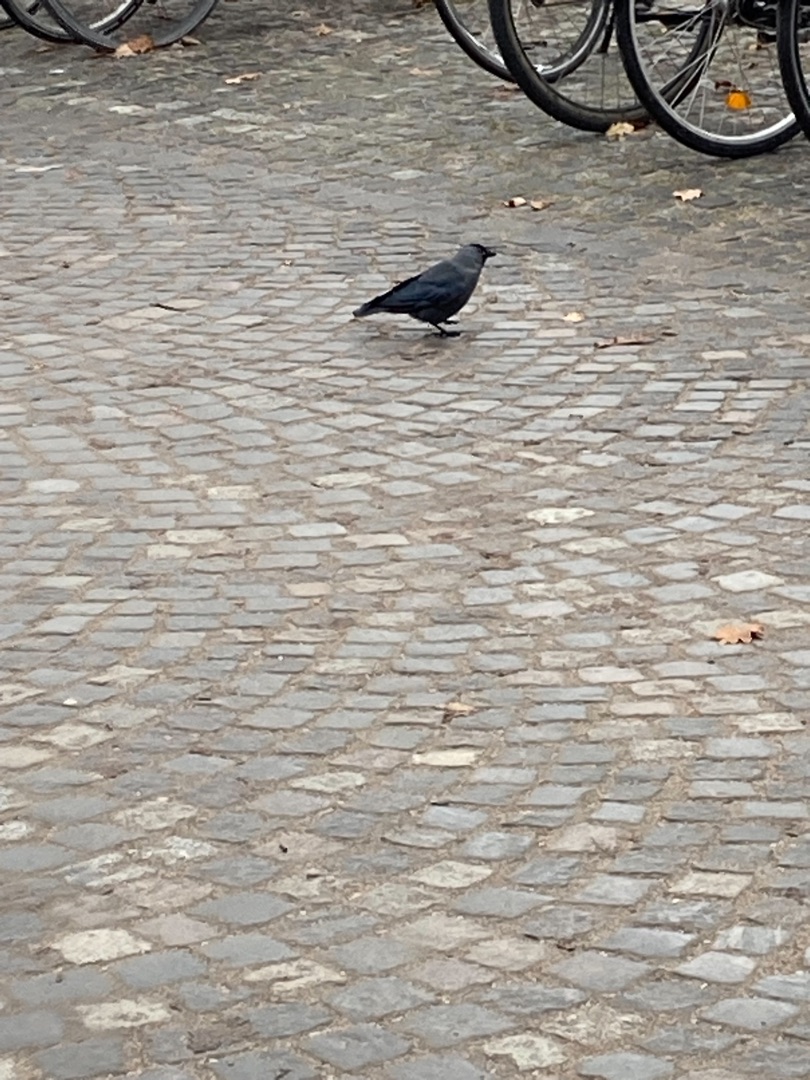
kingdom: Animalia
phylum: Chordata
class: Aves
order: Passeriformes
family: Corvidae
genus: Coloeus
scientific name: Coloeus monedula
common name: Allike
